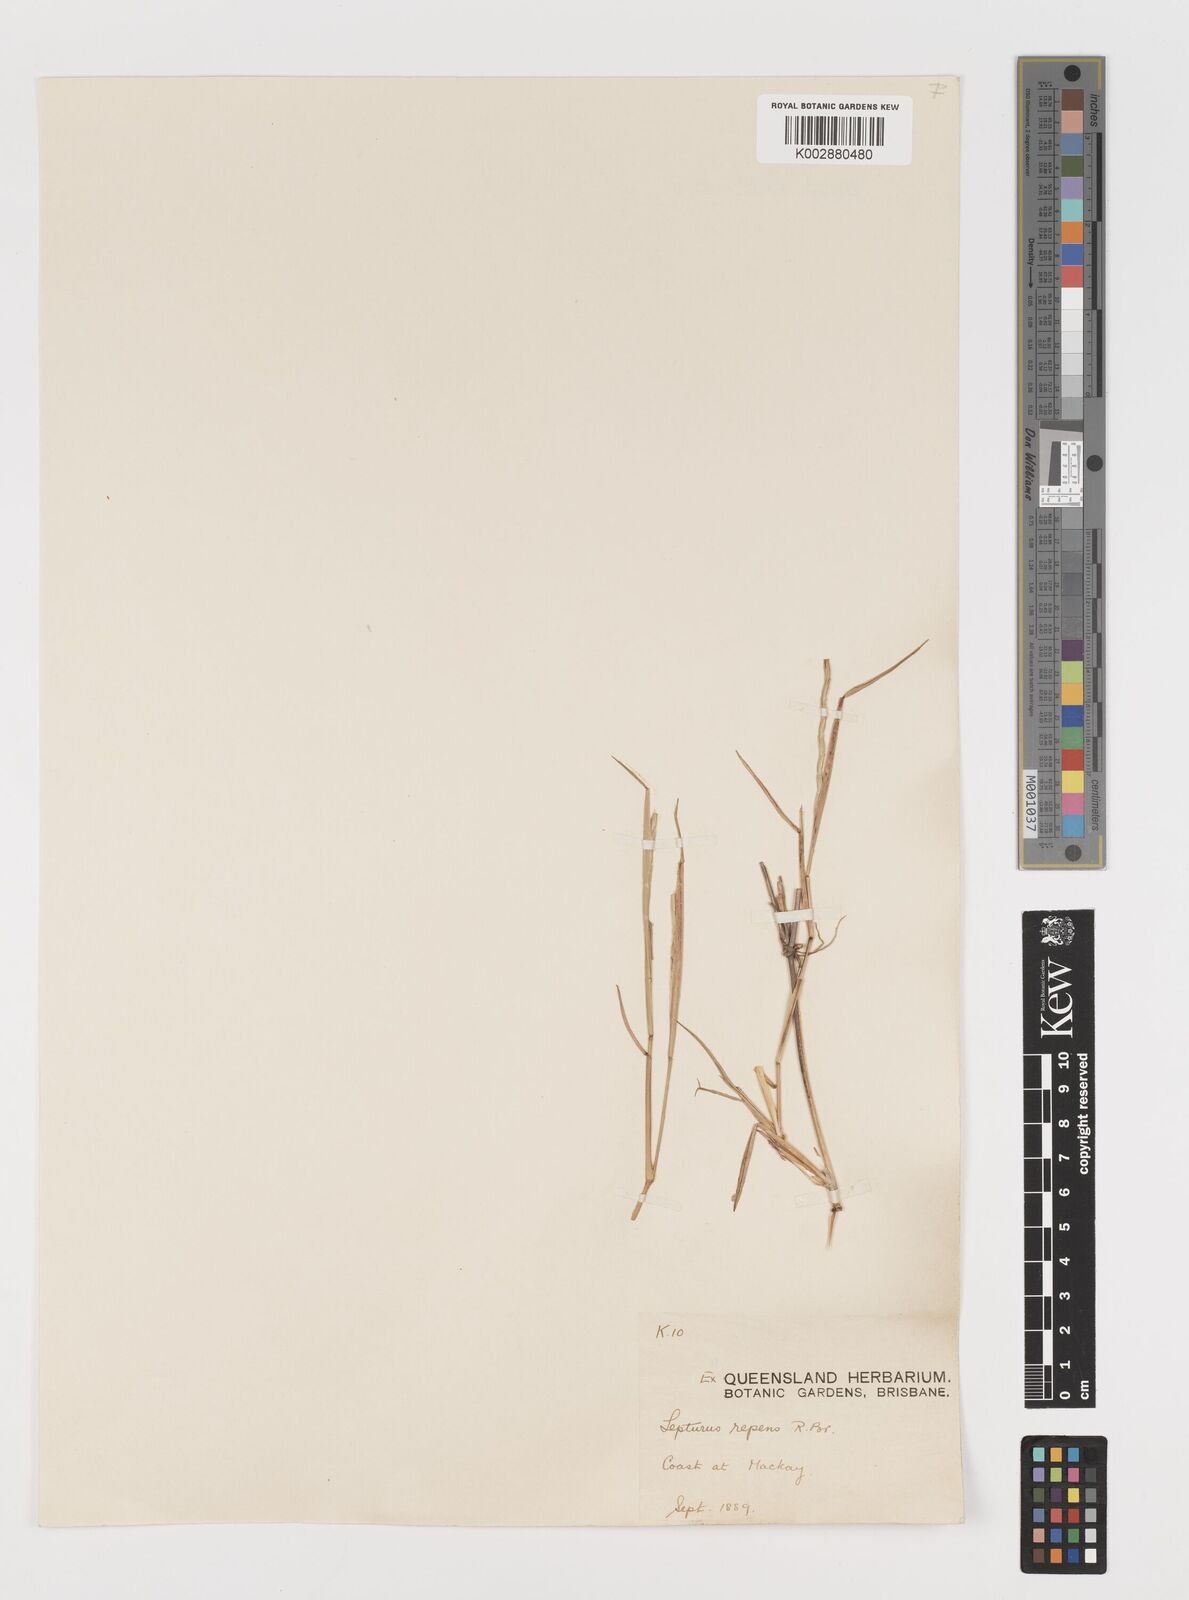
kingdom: Plantae
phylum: Tracheophyta
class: Liliopsida
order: Poales
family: Poaceae
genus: Lepturus
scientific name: Lepturus repens
